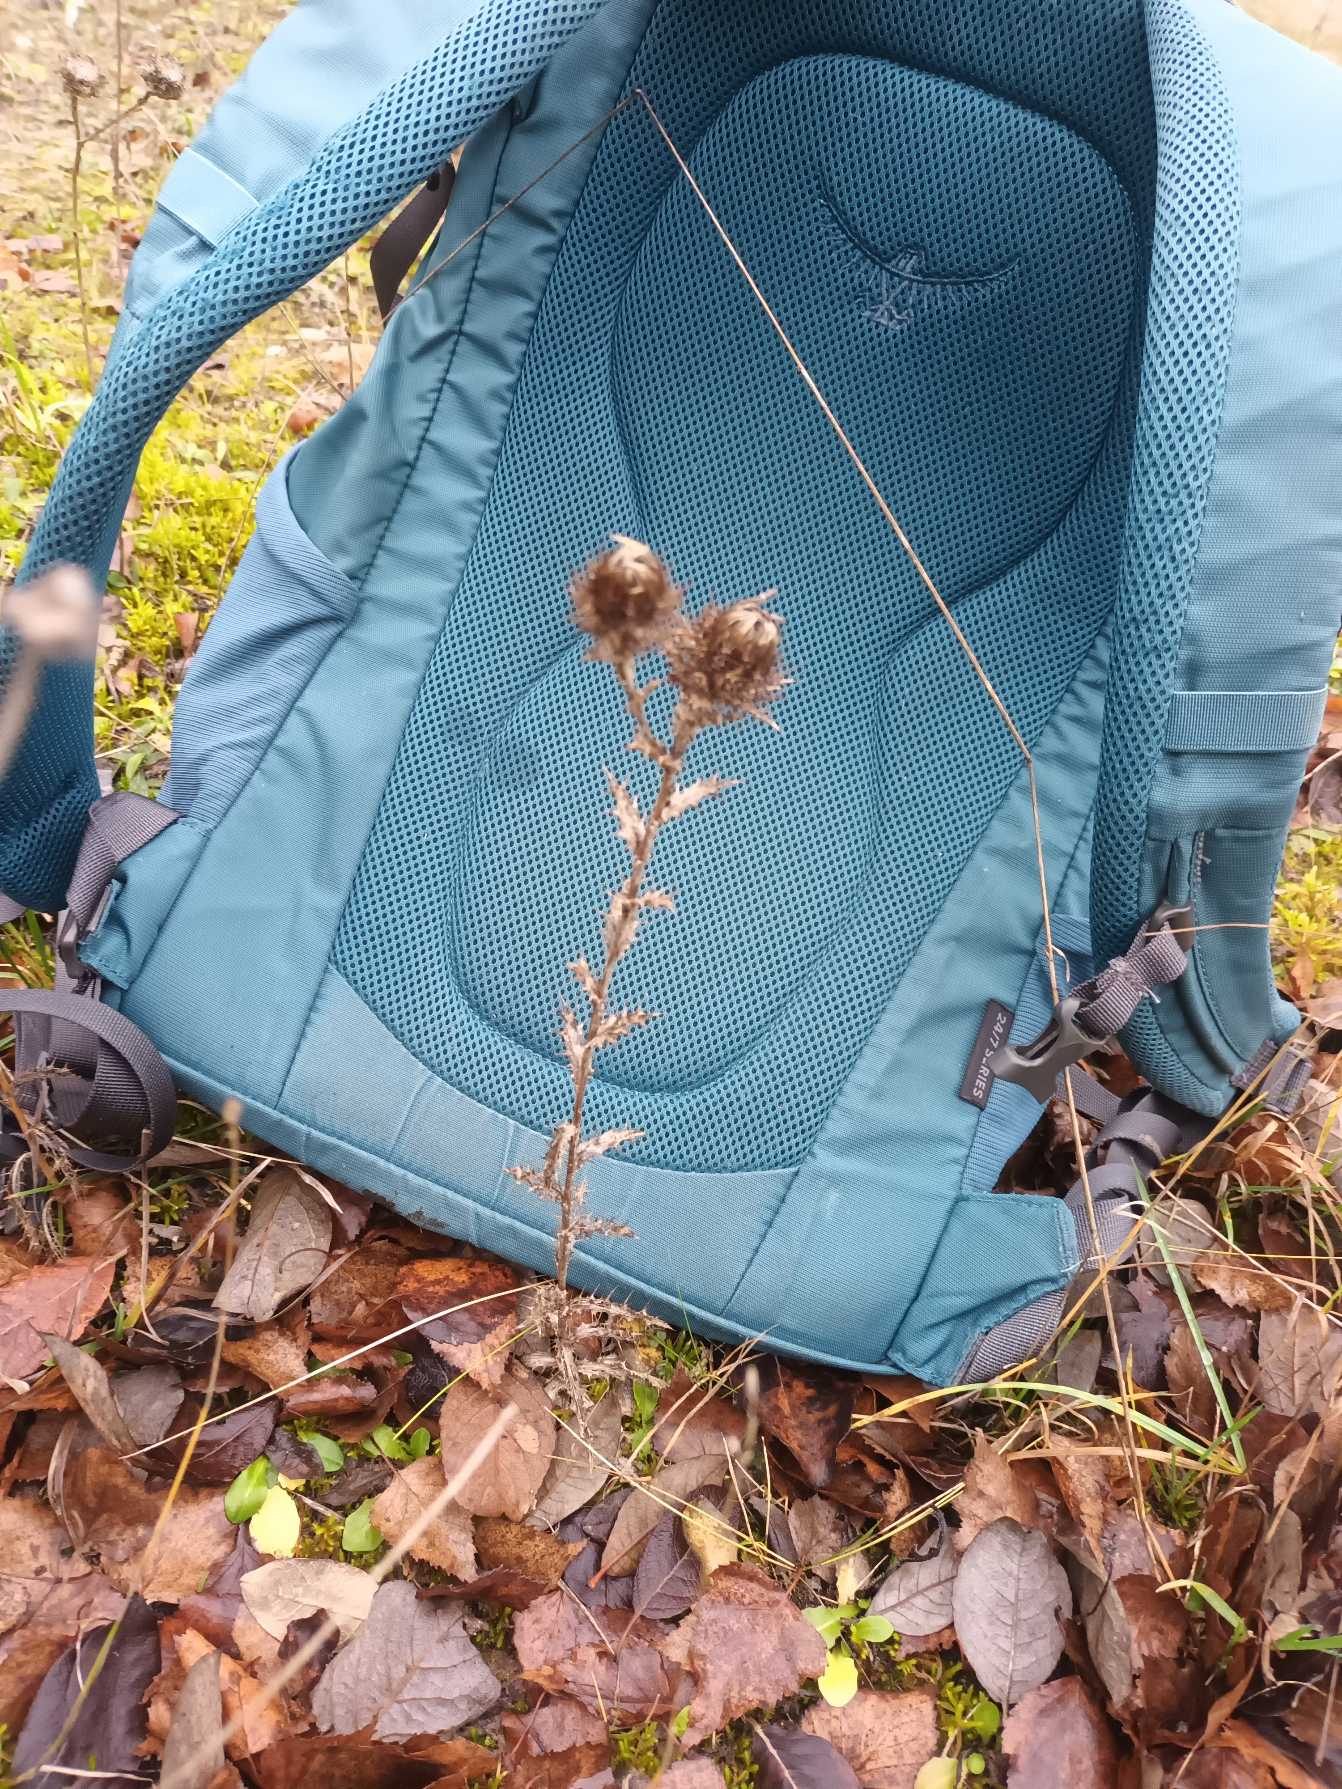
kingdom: Plantae
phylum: Tracheophyta
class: Magnoliopsida
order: Asterales
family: Asteraceae
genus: Carlina
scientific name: Carlina biebersteinii
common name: Langbladet bakketidsel
